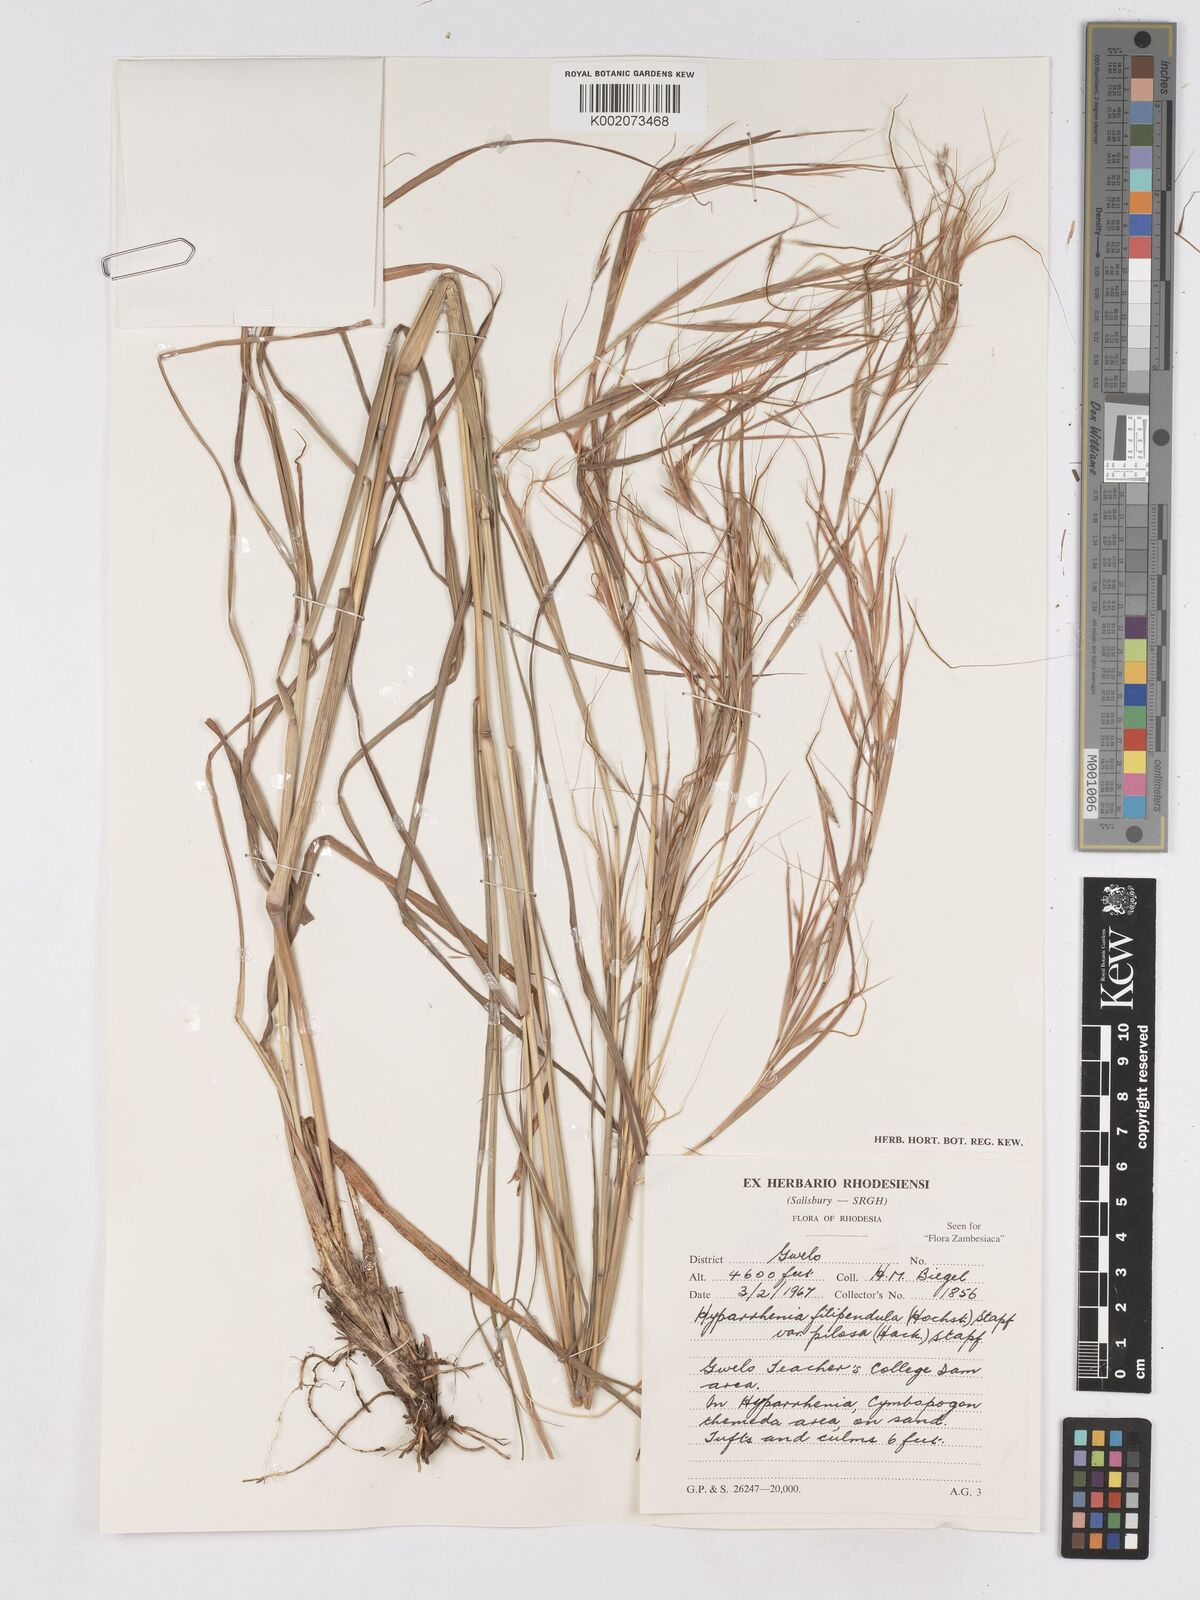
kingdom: Plantae
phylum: Tracheophyta
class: Liliopsida
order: Poales
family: Poaceae
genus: Hyparrhenia
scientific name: Hyparrhenia filipendula
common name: Tambookie grass
